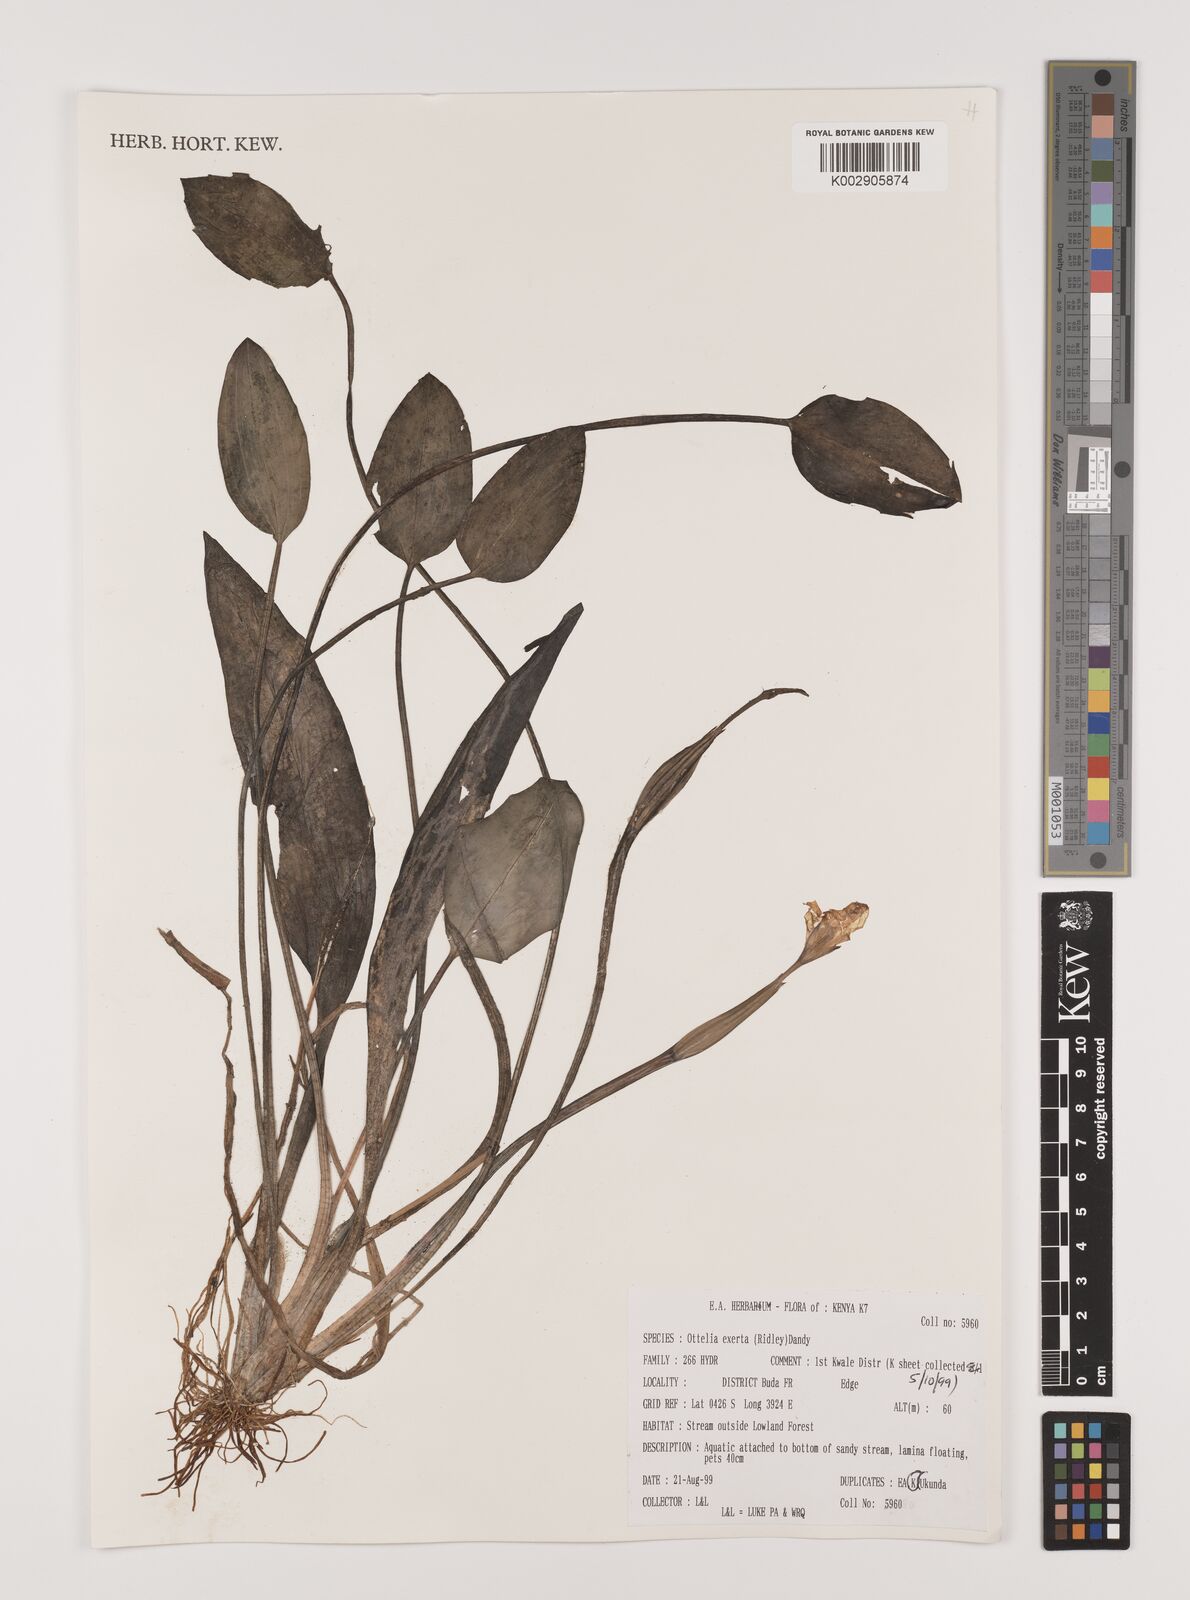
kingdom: Plantae
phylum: Tracheophyta
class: Liliopsida
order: Alismatales
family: Hydrocharitaceae
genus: Ottelia
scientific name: Ottelia exserta
